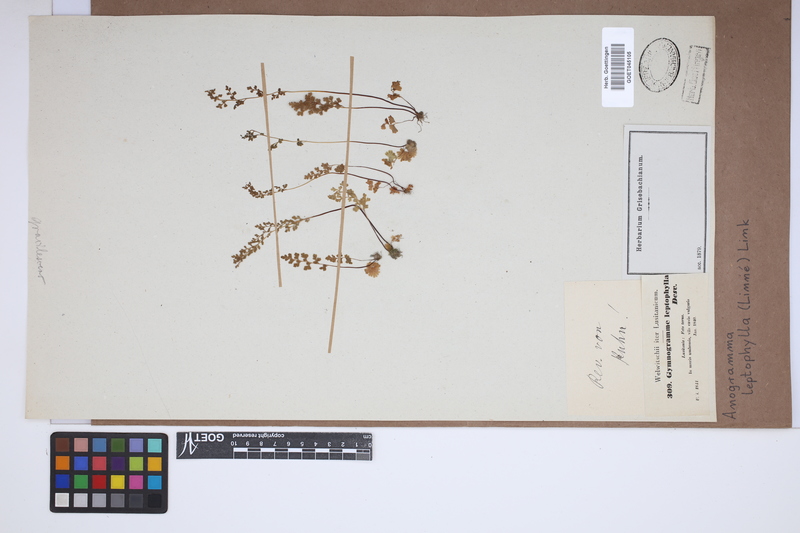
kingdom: Plantae
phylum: Tracheophyta
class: Polypodiopsida
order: Polypodiales
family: Pteridaceae
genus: Anogramma
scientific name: Anogramma leptophylla
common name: Jersey fern
